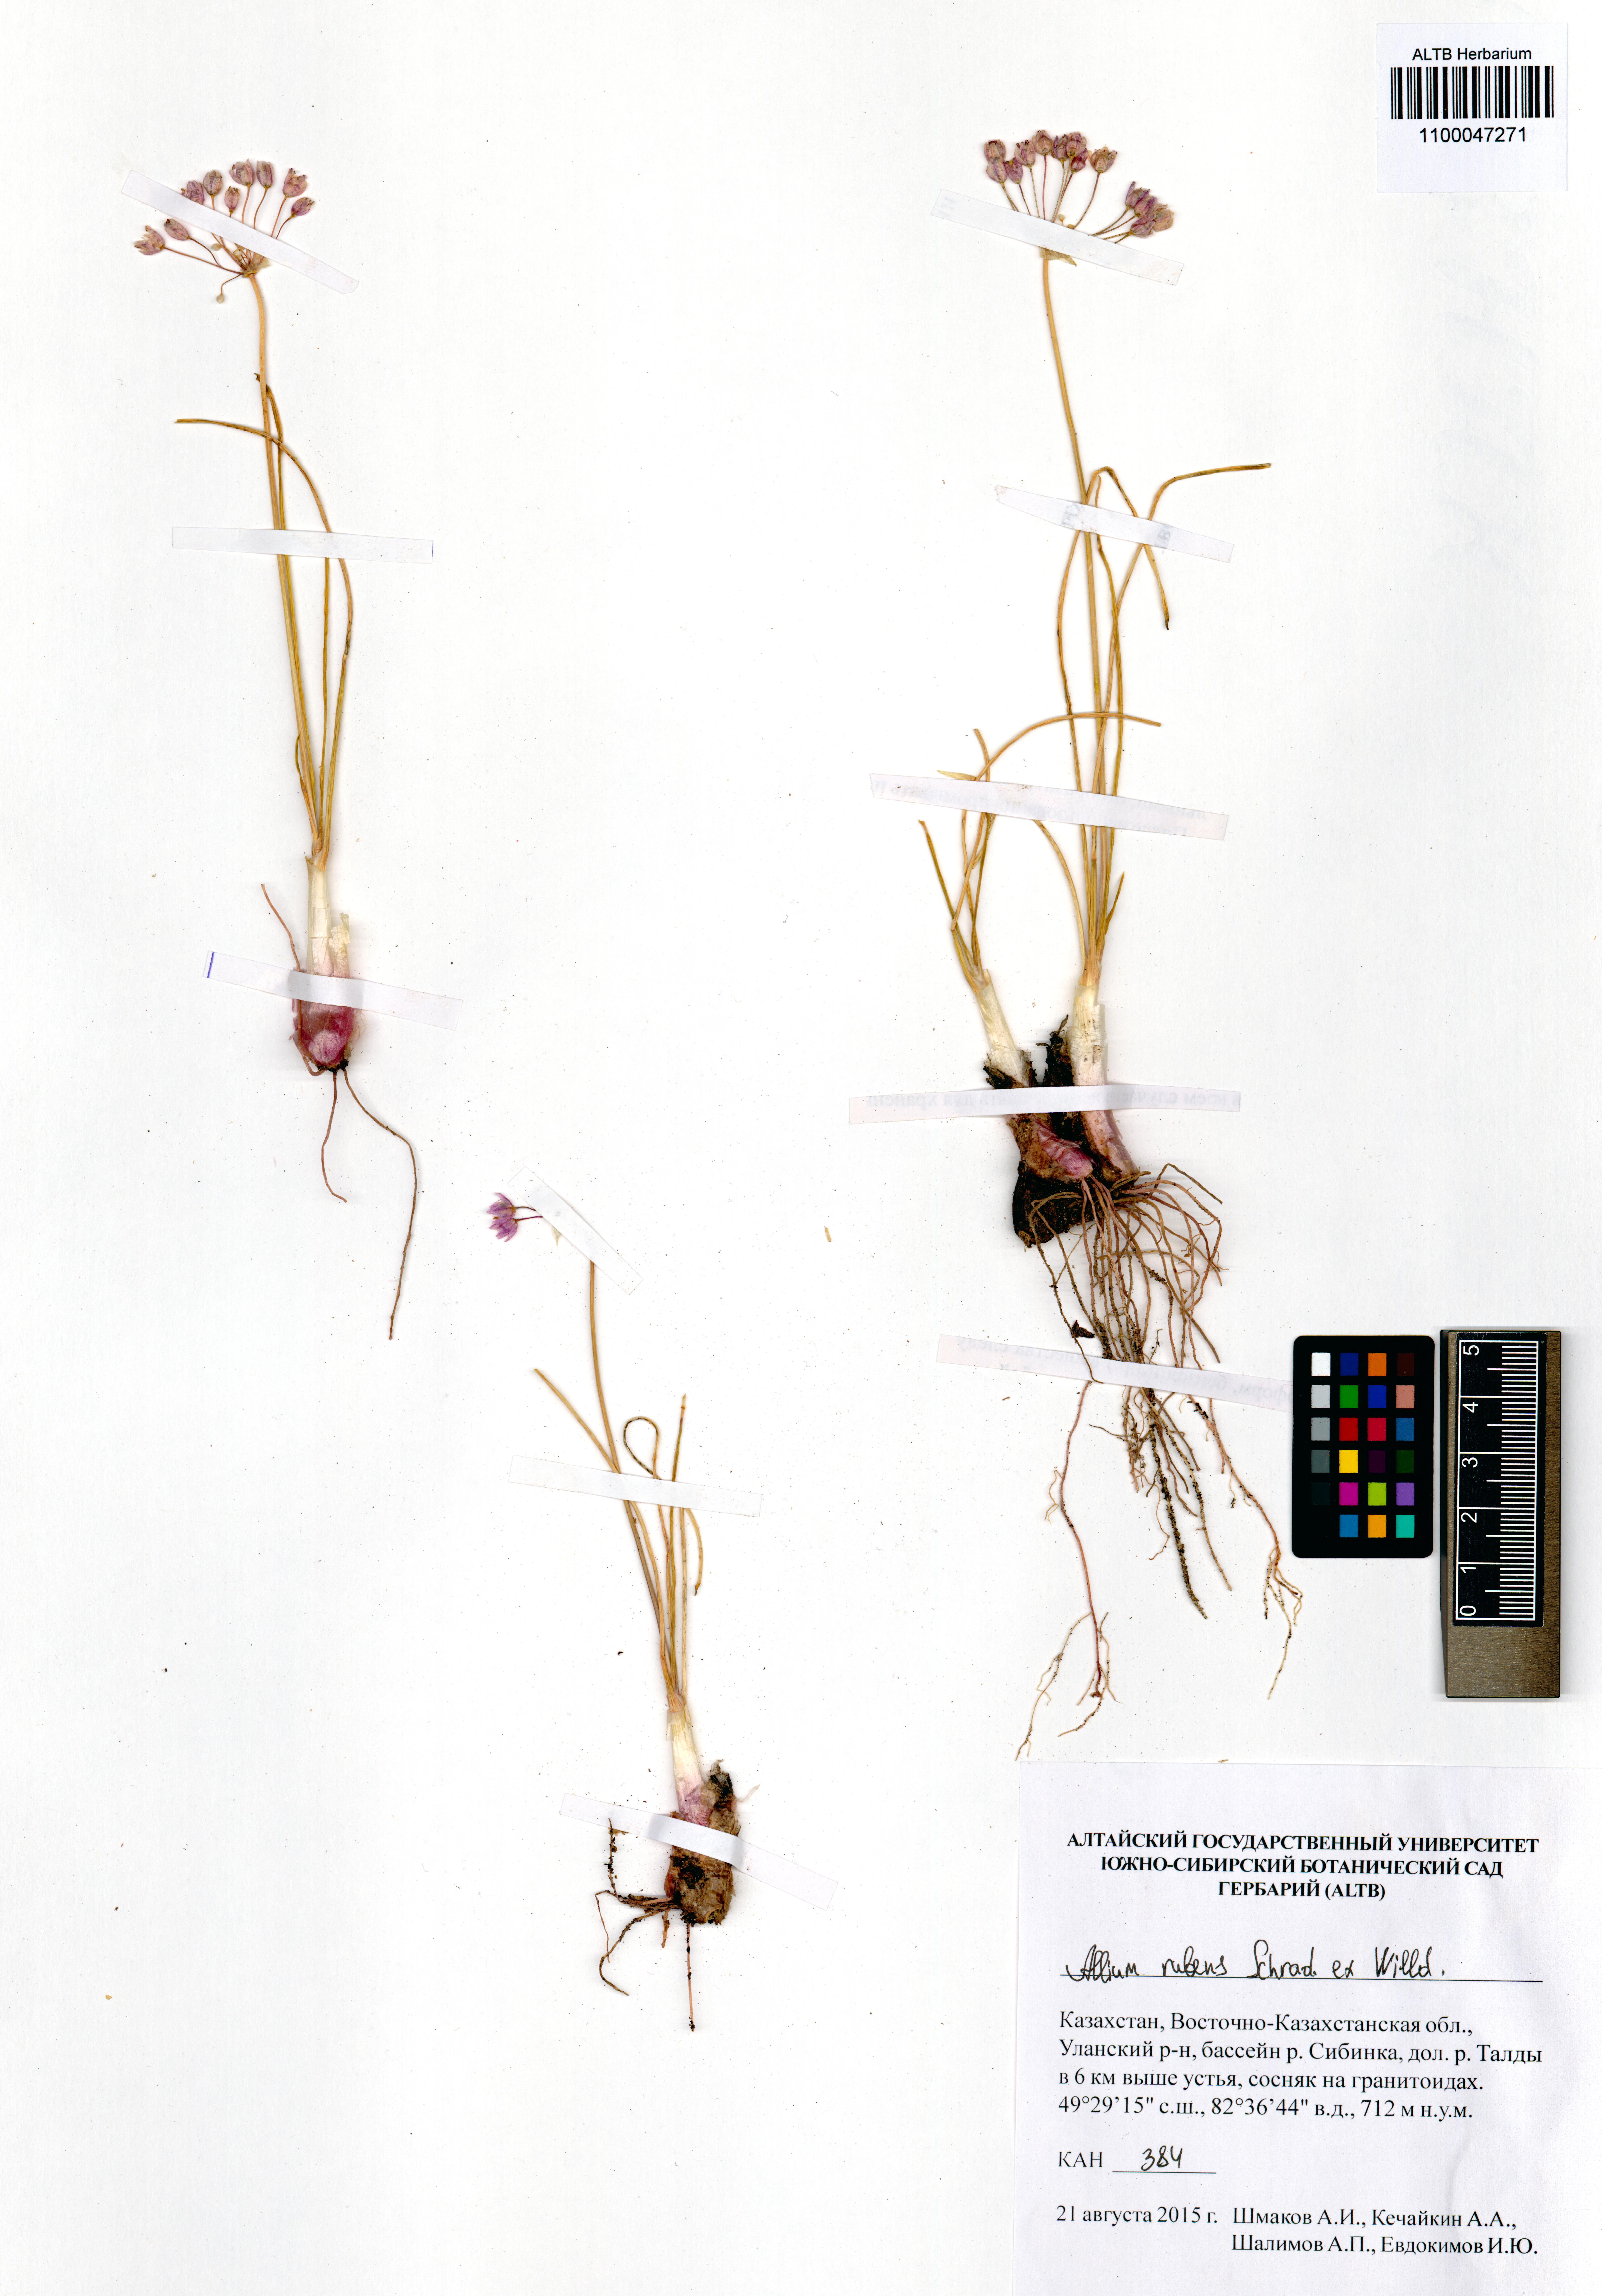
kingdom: Plantae
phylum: Tracheophyta
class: Liliopsida
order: Asparagales
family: Amaryllidaceae
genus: Allium
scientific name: Allium rubens
